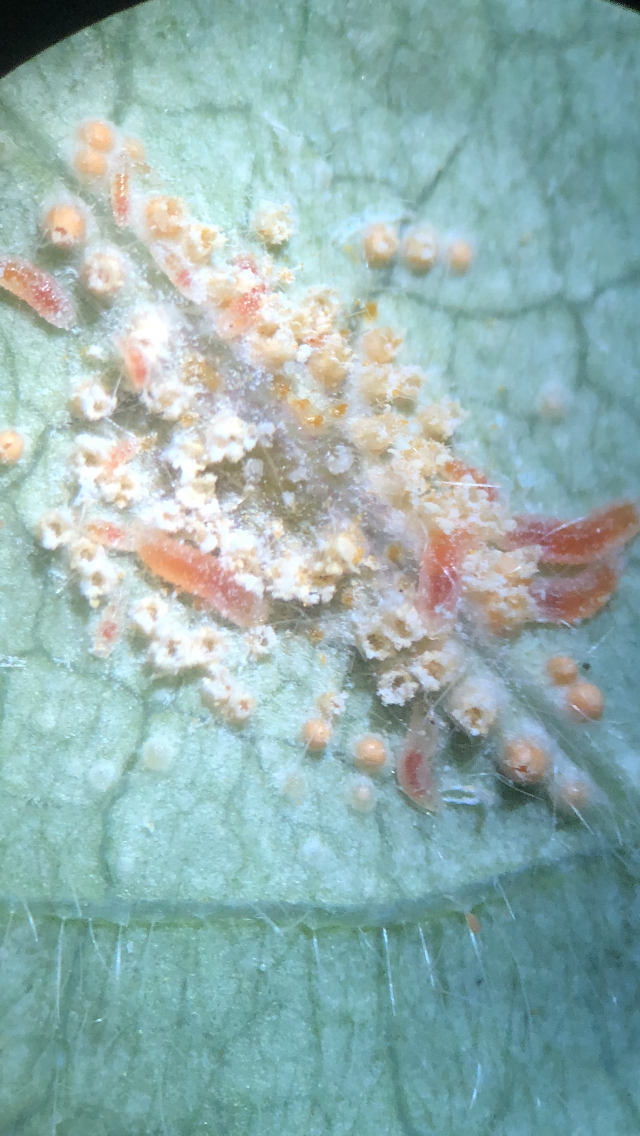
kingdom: Fungi
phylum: Basidiomycota
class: Pucciniomycetes
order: Pucciniales
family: Pucciniaceae
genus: Puccinia
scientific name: Puccinia festucae
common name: gedeblad-tvecellerust
